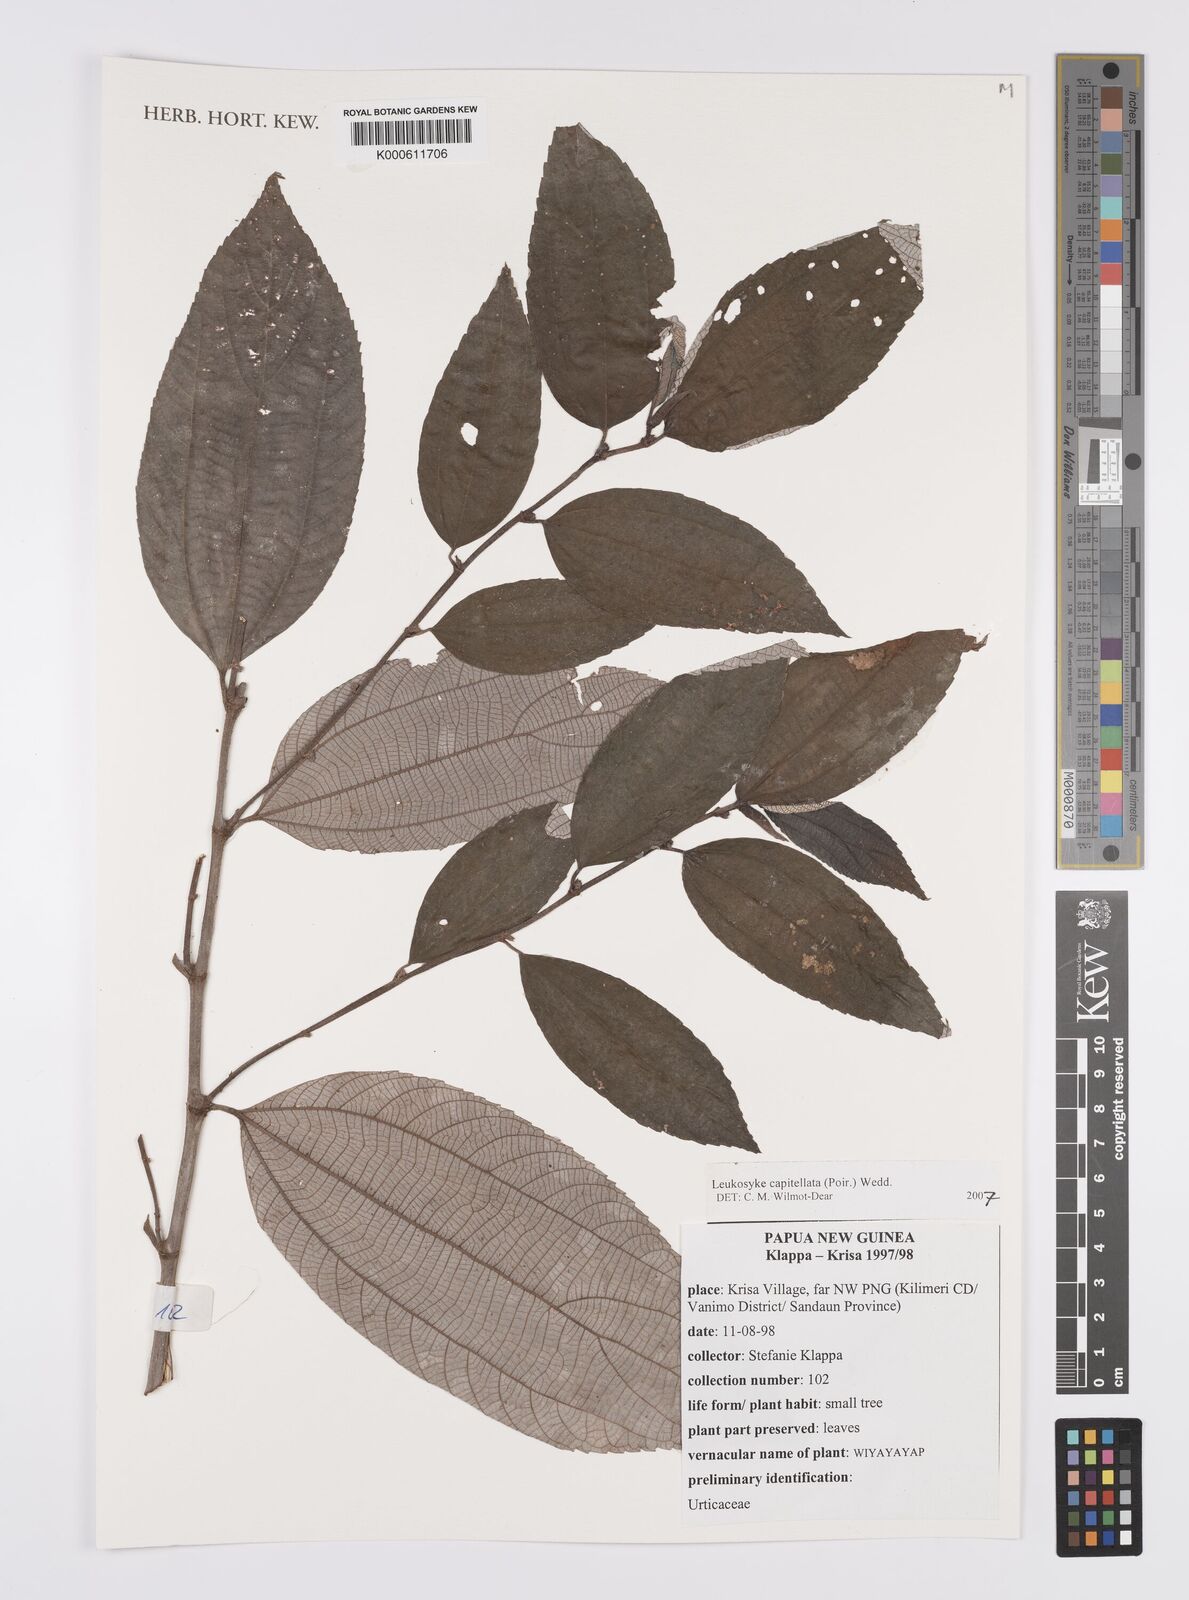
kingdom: Plantae
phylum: Tracheophyta
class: Magnoliopsida
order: Rosales
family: Urticaceae
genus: Leucosyke
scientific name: Leucosyke capitellata
